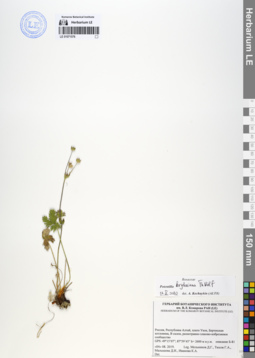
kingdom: Plantae
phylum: Tracheophyta
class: Magnoliopsida
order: Rosales
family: Rosaceae
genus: Potentilla
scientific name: Potentilla kryloviana
